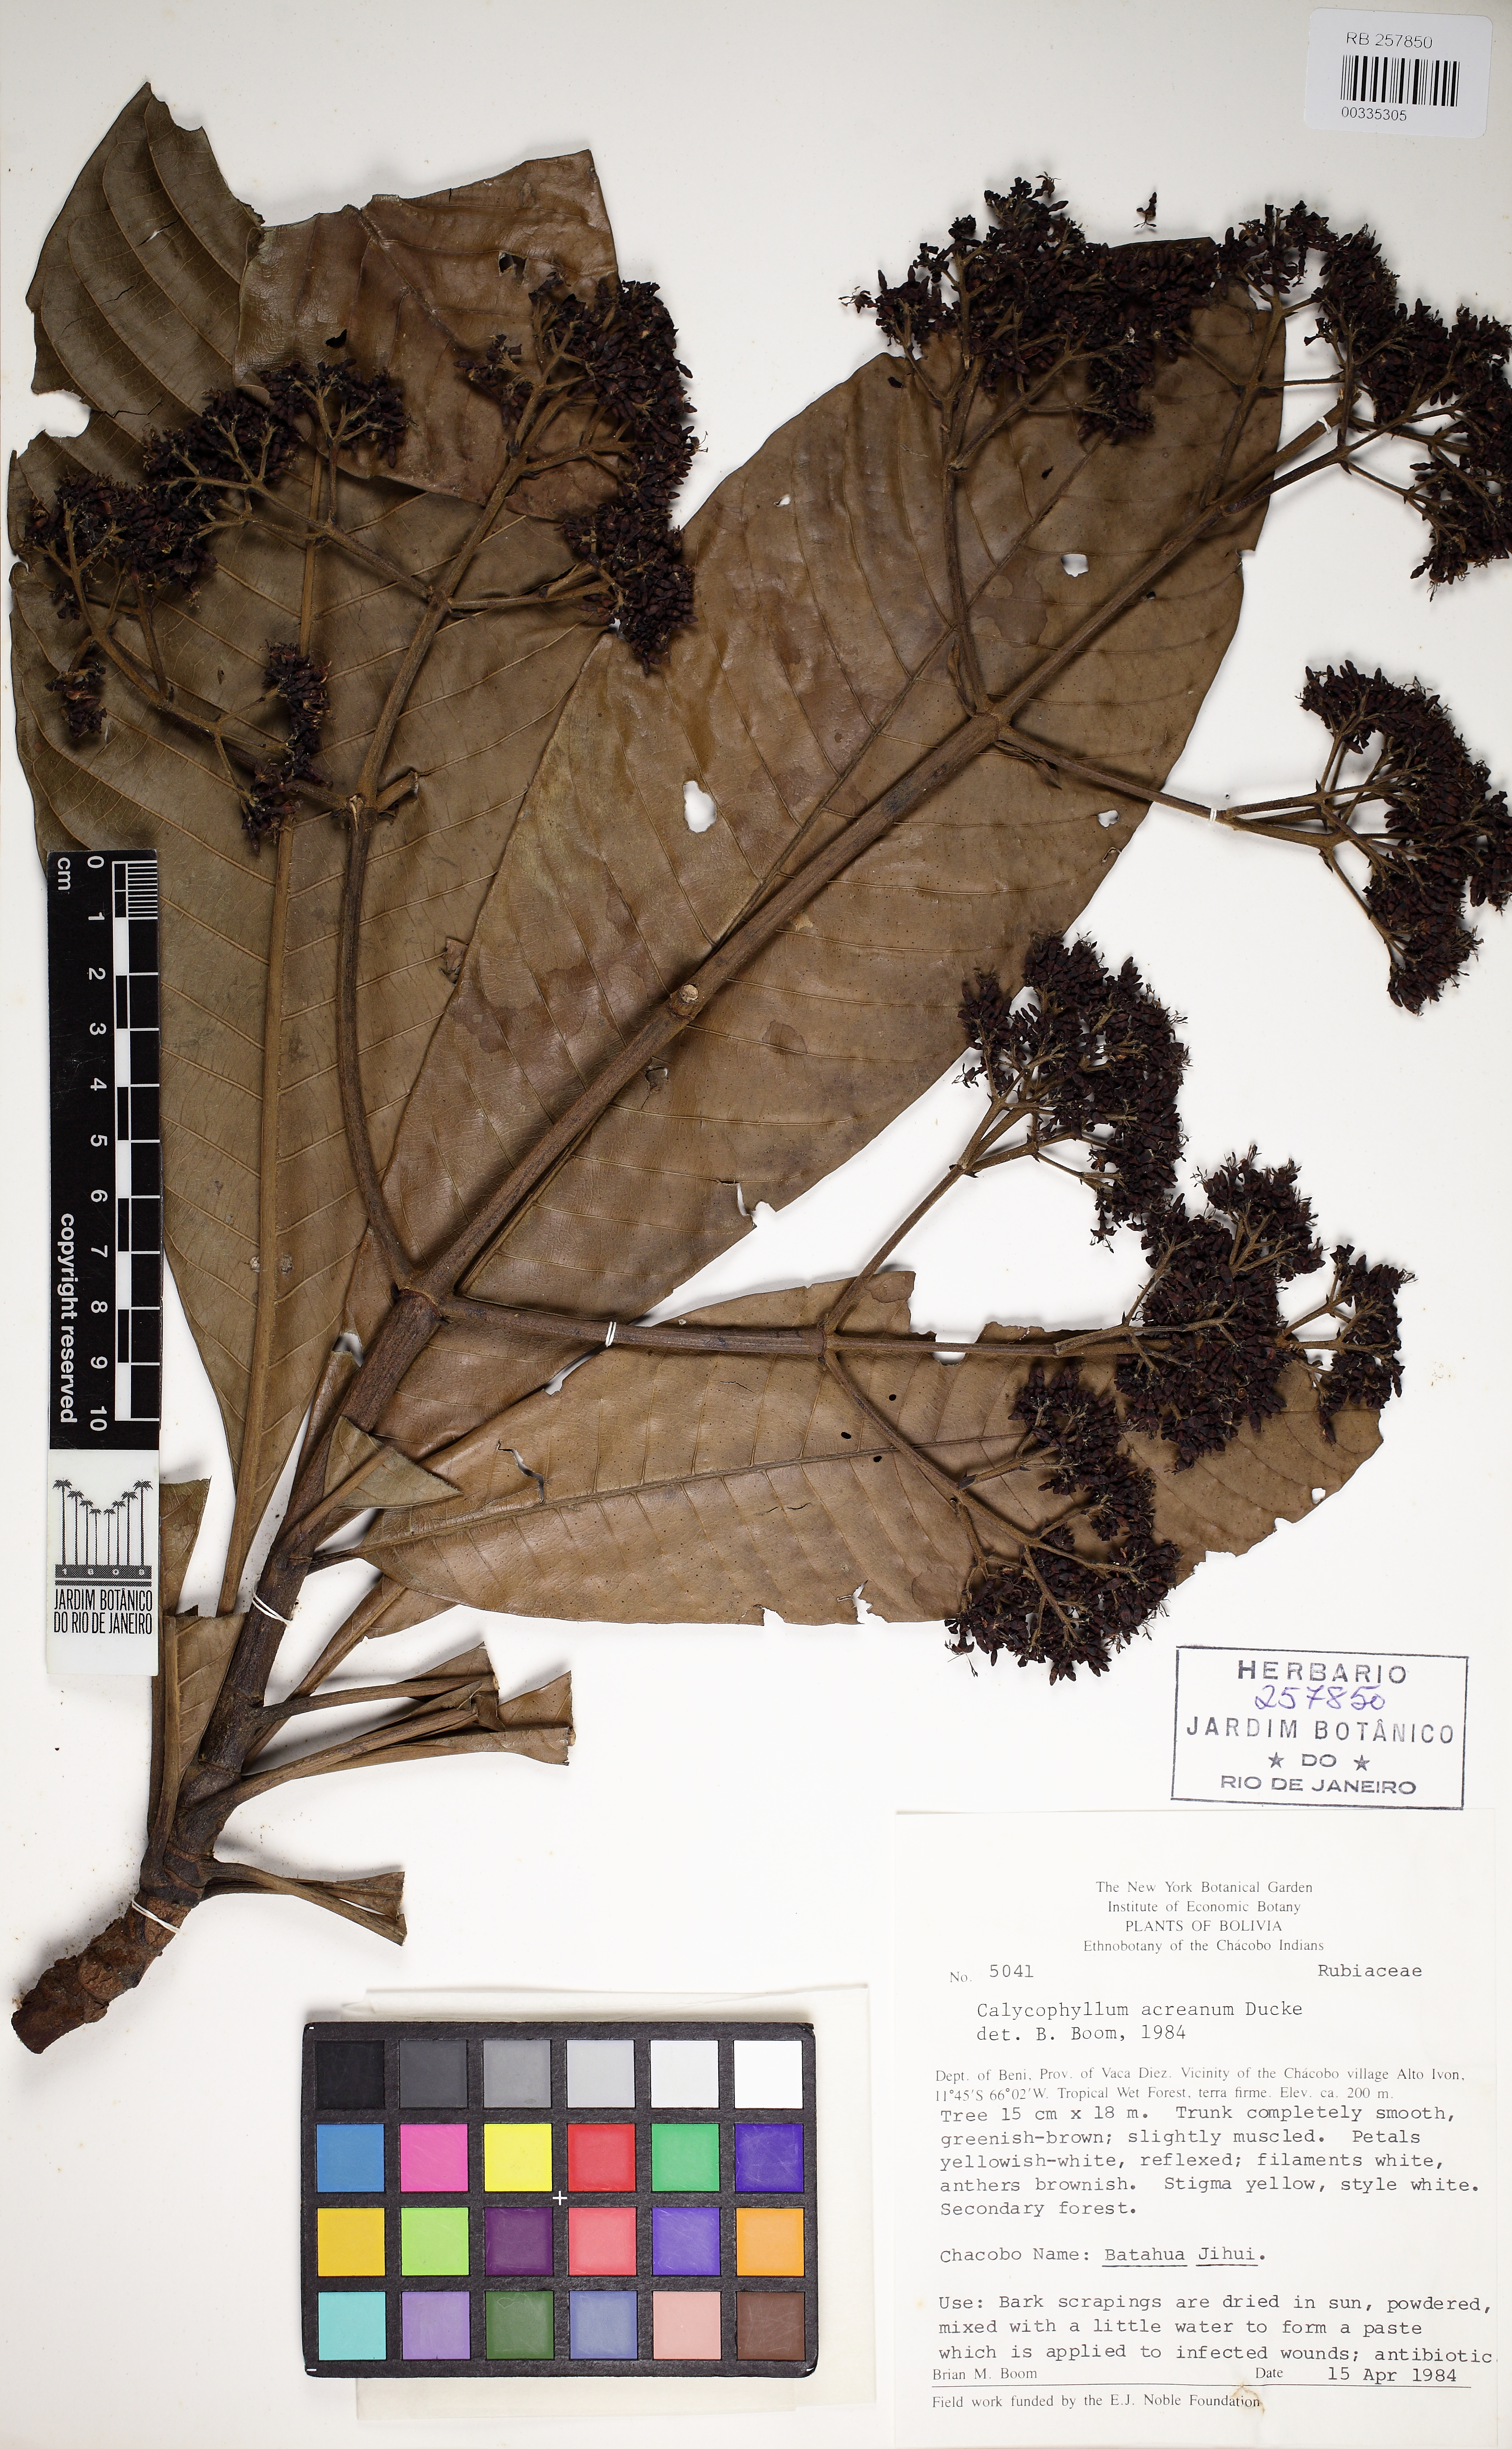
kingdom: Plantae
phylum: Tracheophyta
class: Magnoliopsida
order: Gentianales
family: Rubiaceae
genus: Calycophyllum
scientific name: Calycophyllum megistocaulum
